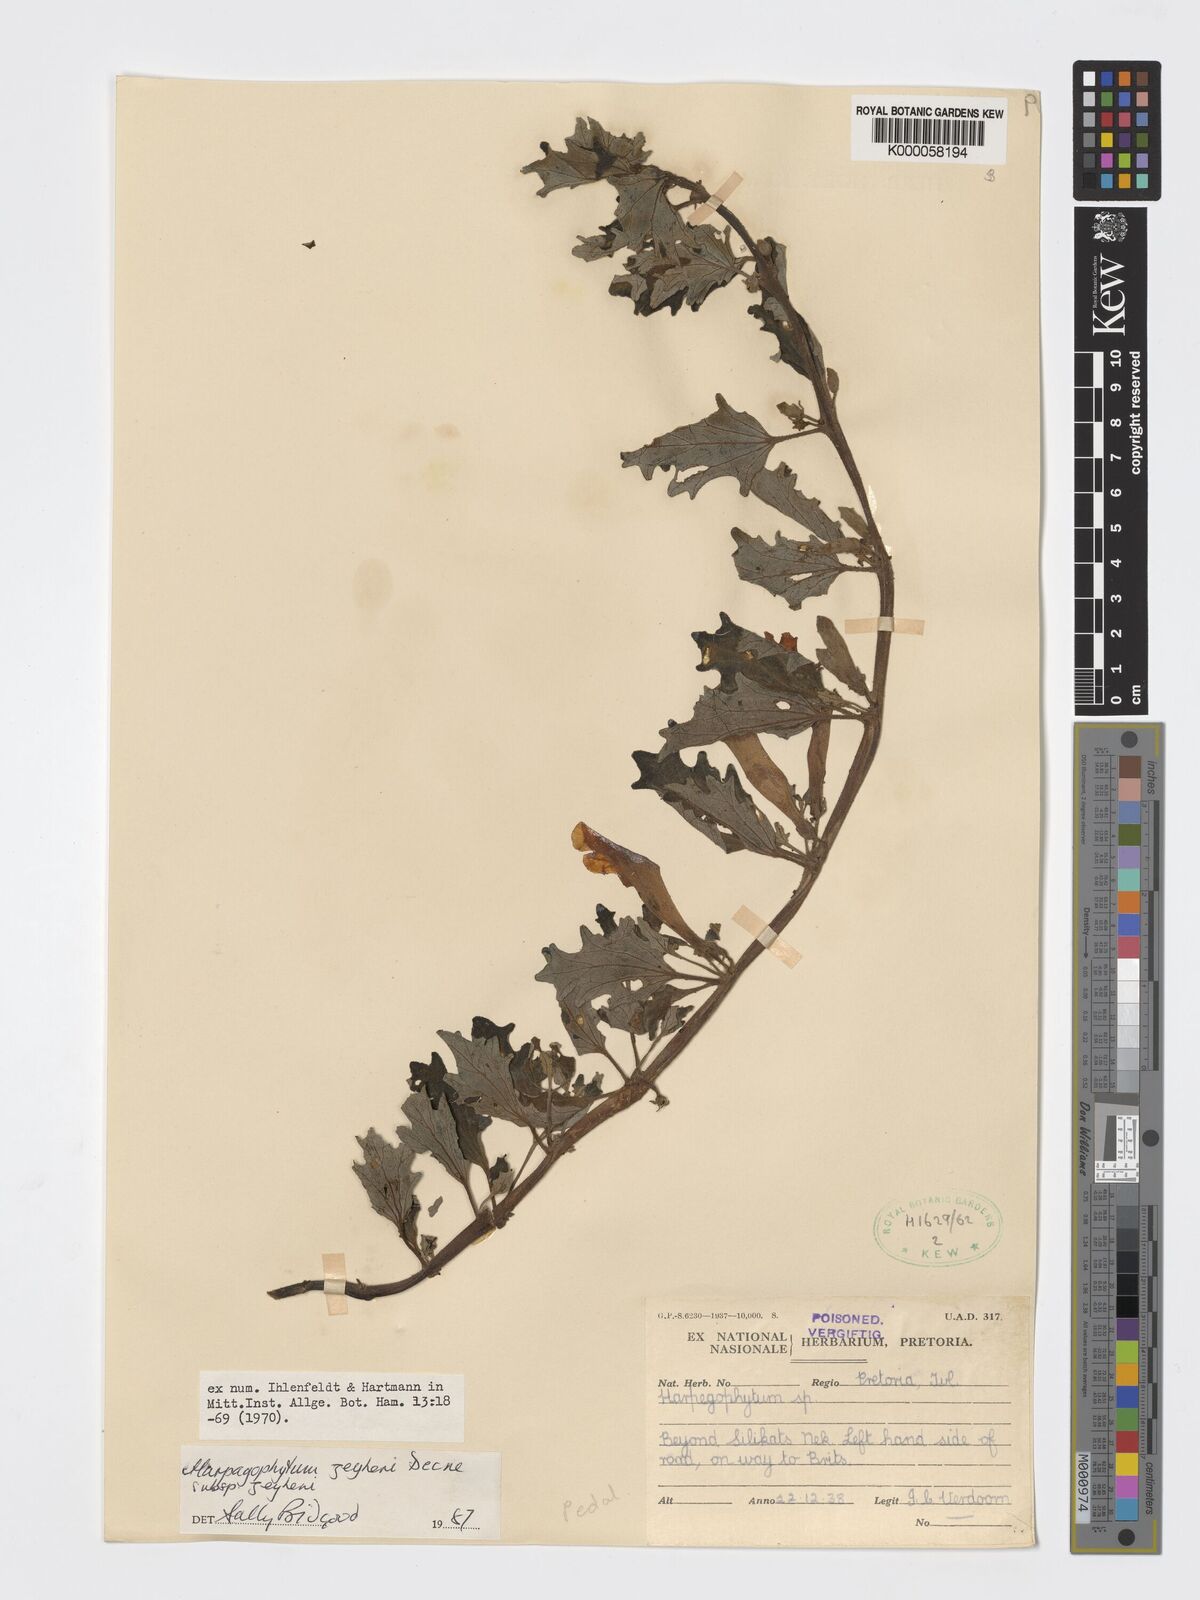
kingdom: Plantae
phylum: Tracheophyta
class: Magnoliopsida
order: Lamiales
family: Pedaliaceae
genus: Harpagophytum
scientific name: Harpagophytum zeyheri
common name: Grappleplant
